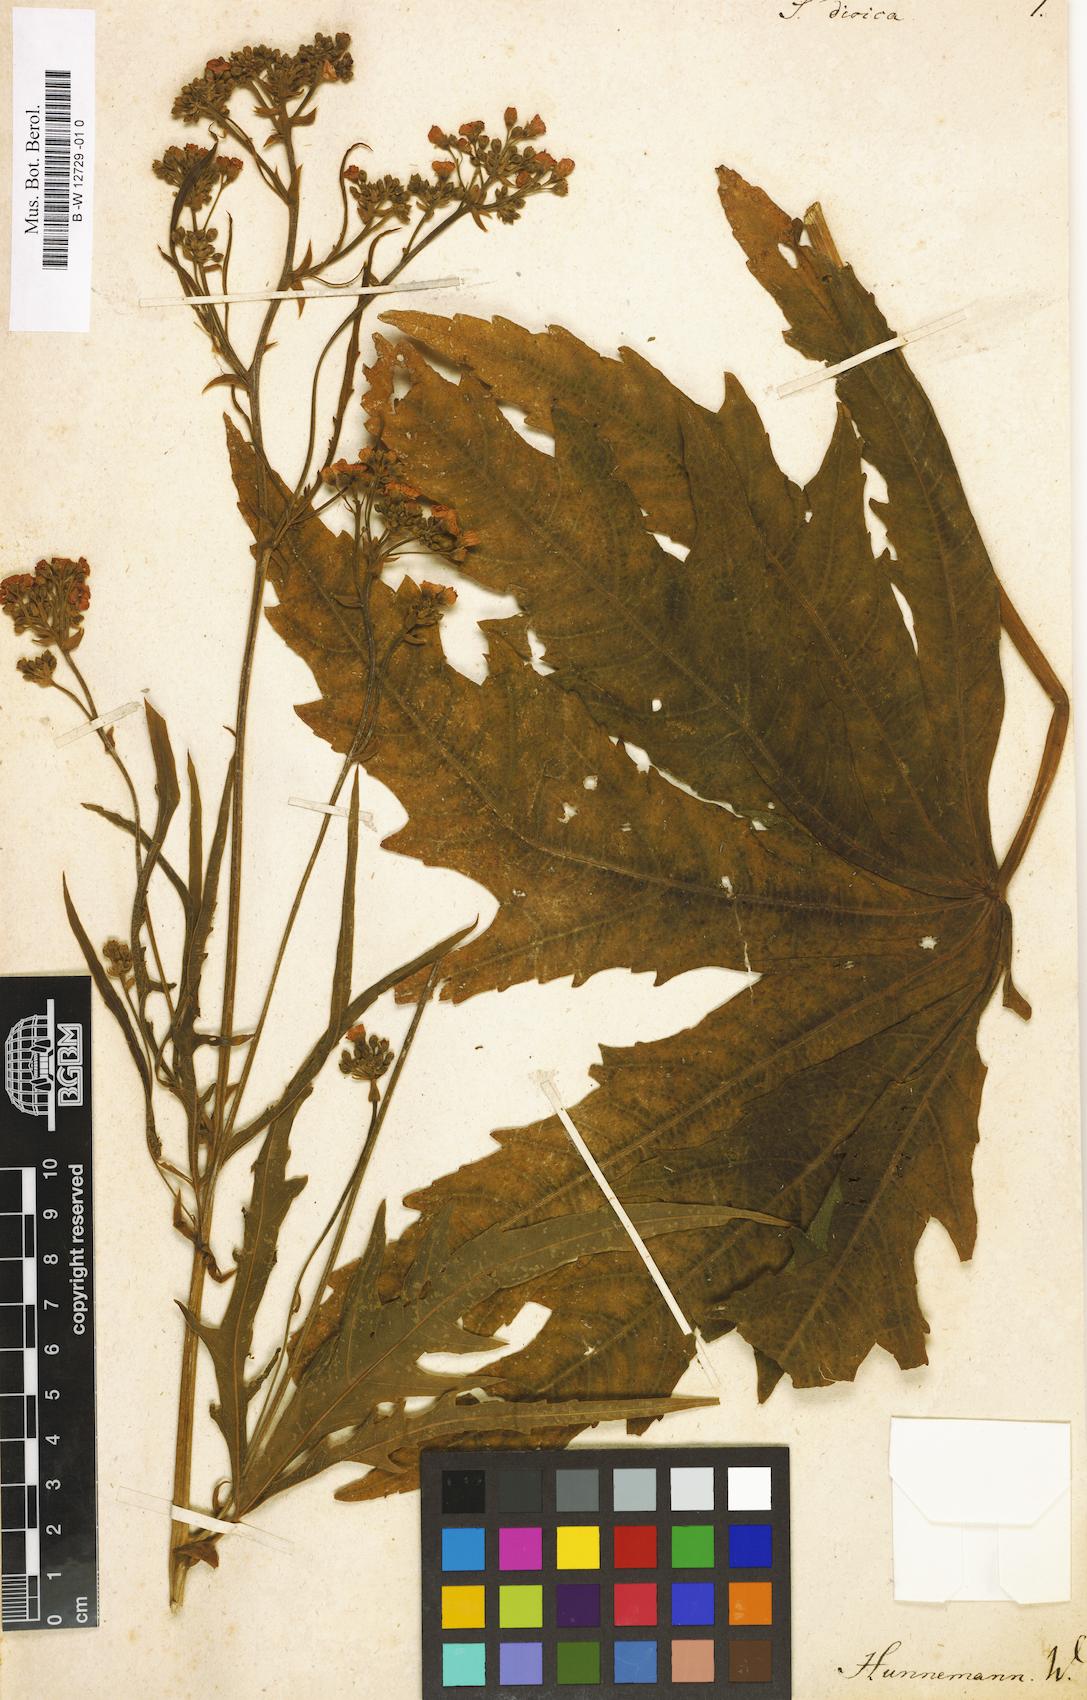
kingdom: Plantae
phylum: Tracheophyta
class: Magnoliopsida
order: Malvales
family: Malvaceae
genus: Napaea
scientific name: Napaea dioica
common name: Glade-mallow
